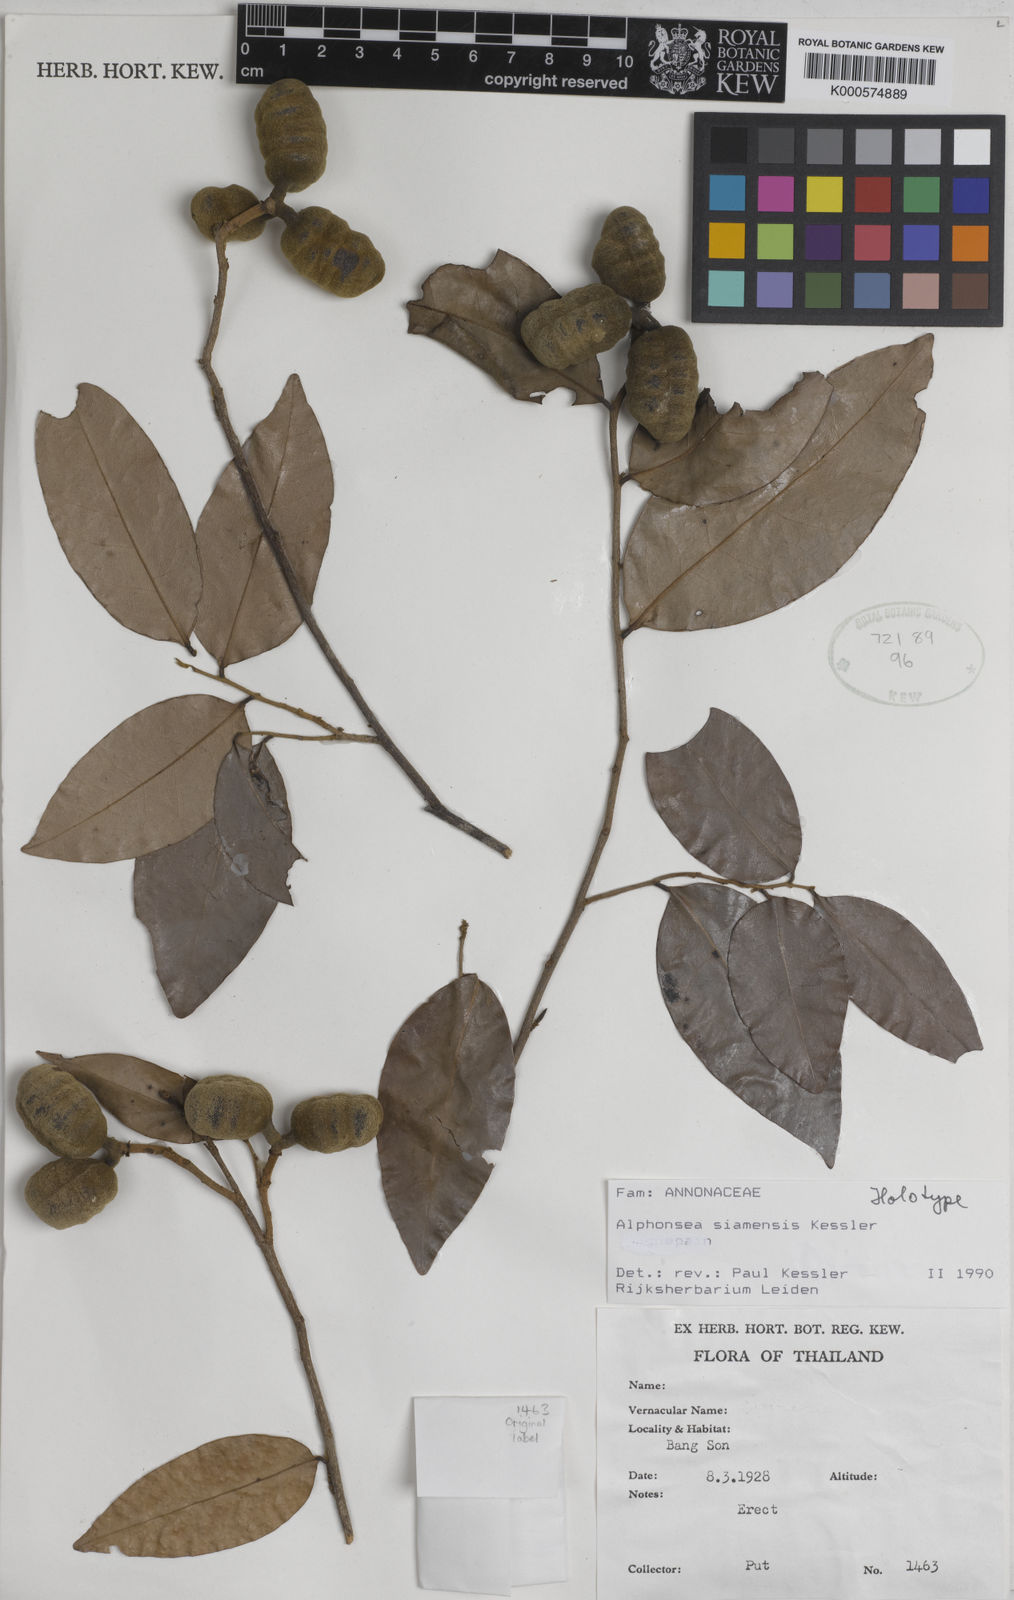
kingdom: Plantae
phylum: Tracheophyta
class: Magnoliopsida
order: Magnoliales
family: Annonaceae
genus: Alphonsea
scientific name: Alphonsea siamensis
